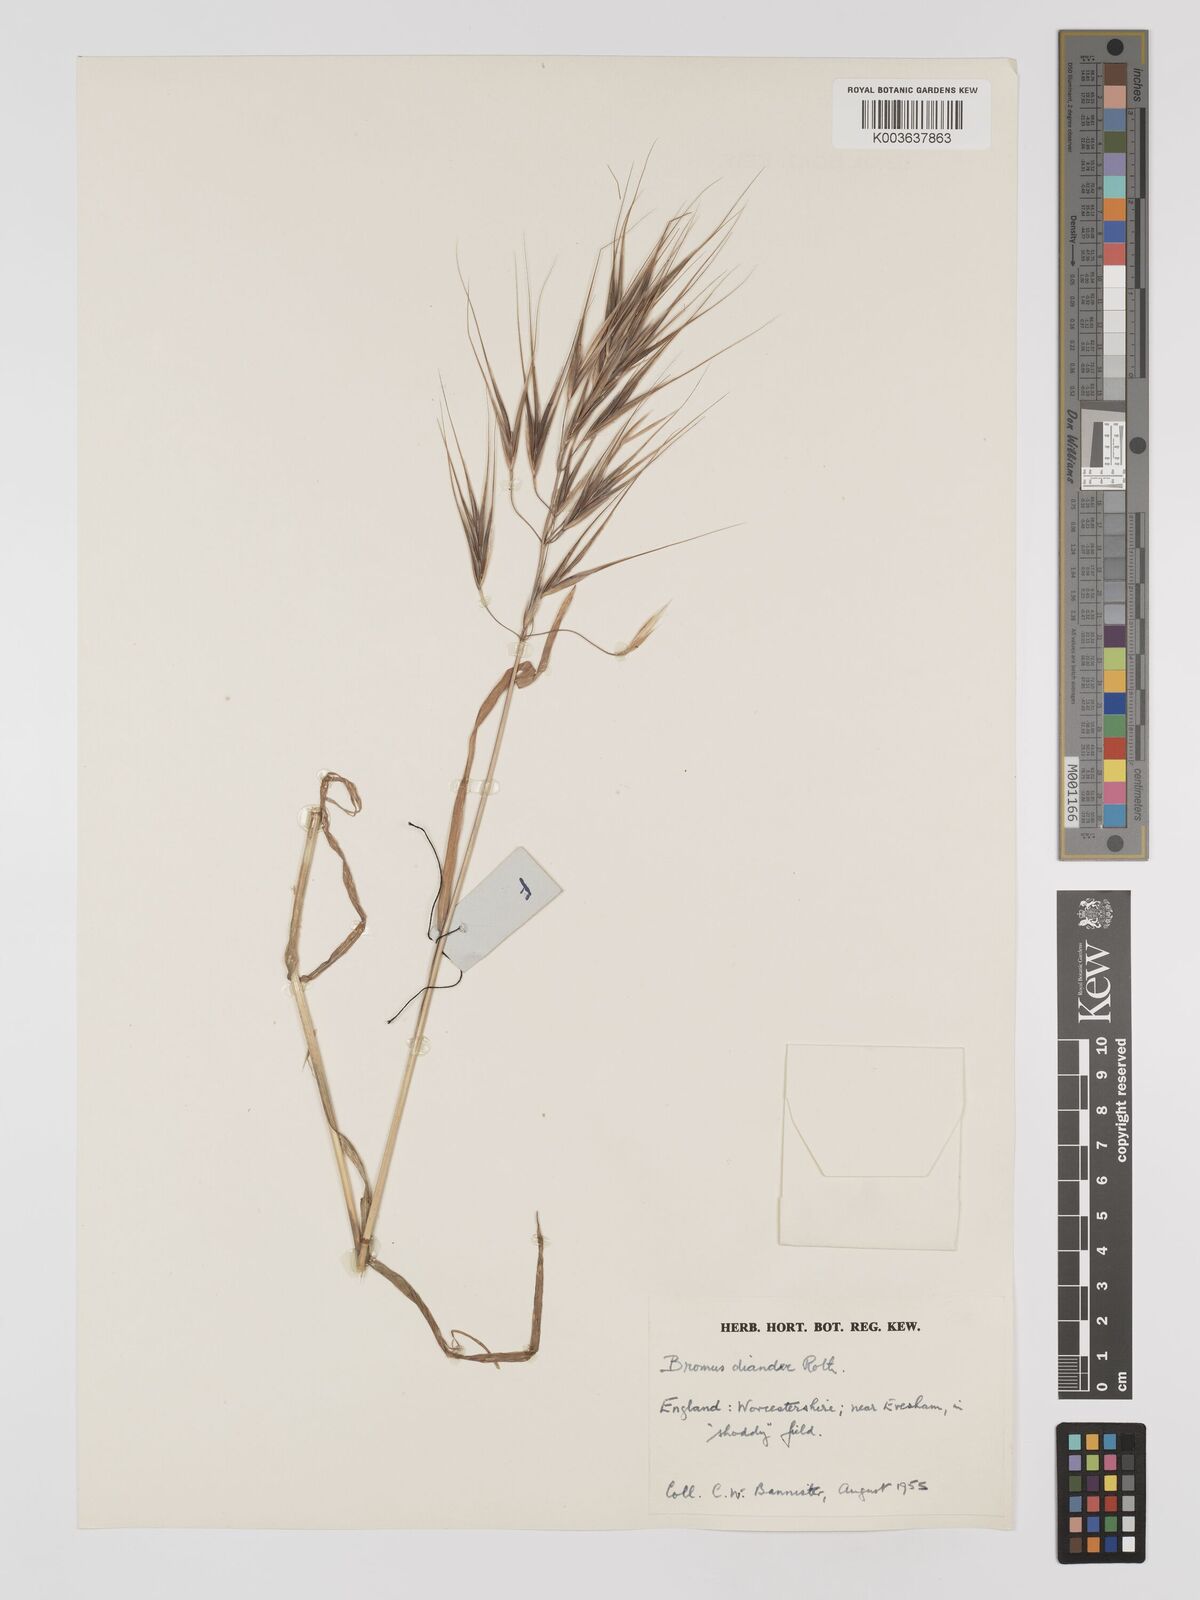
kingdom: Plantae
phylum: Tracheophyta
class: Liliopsida
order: Poales
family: Poaceae
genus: Bromus
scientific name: Bromus
